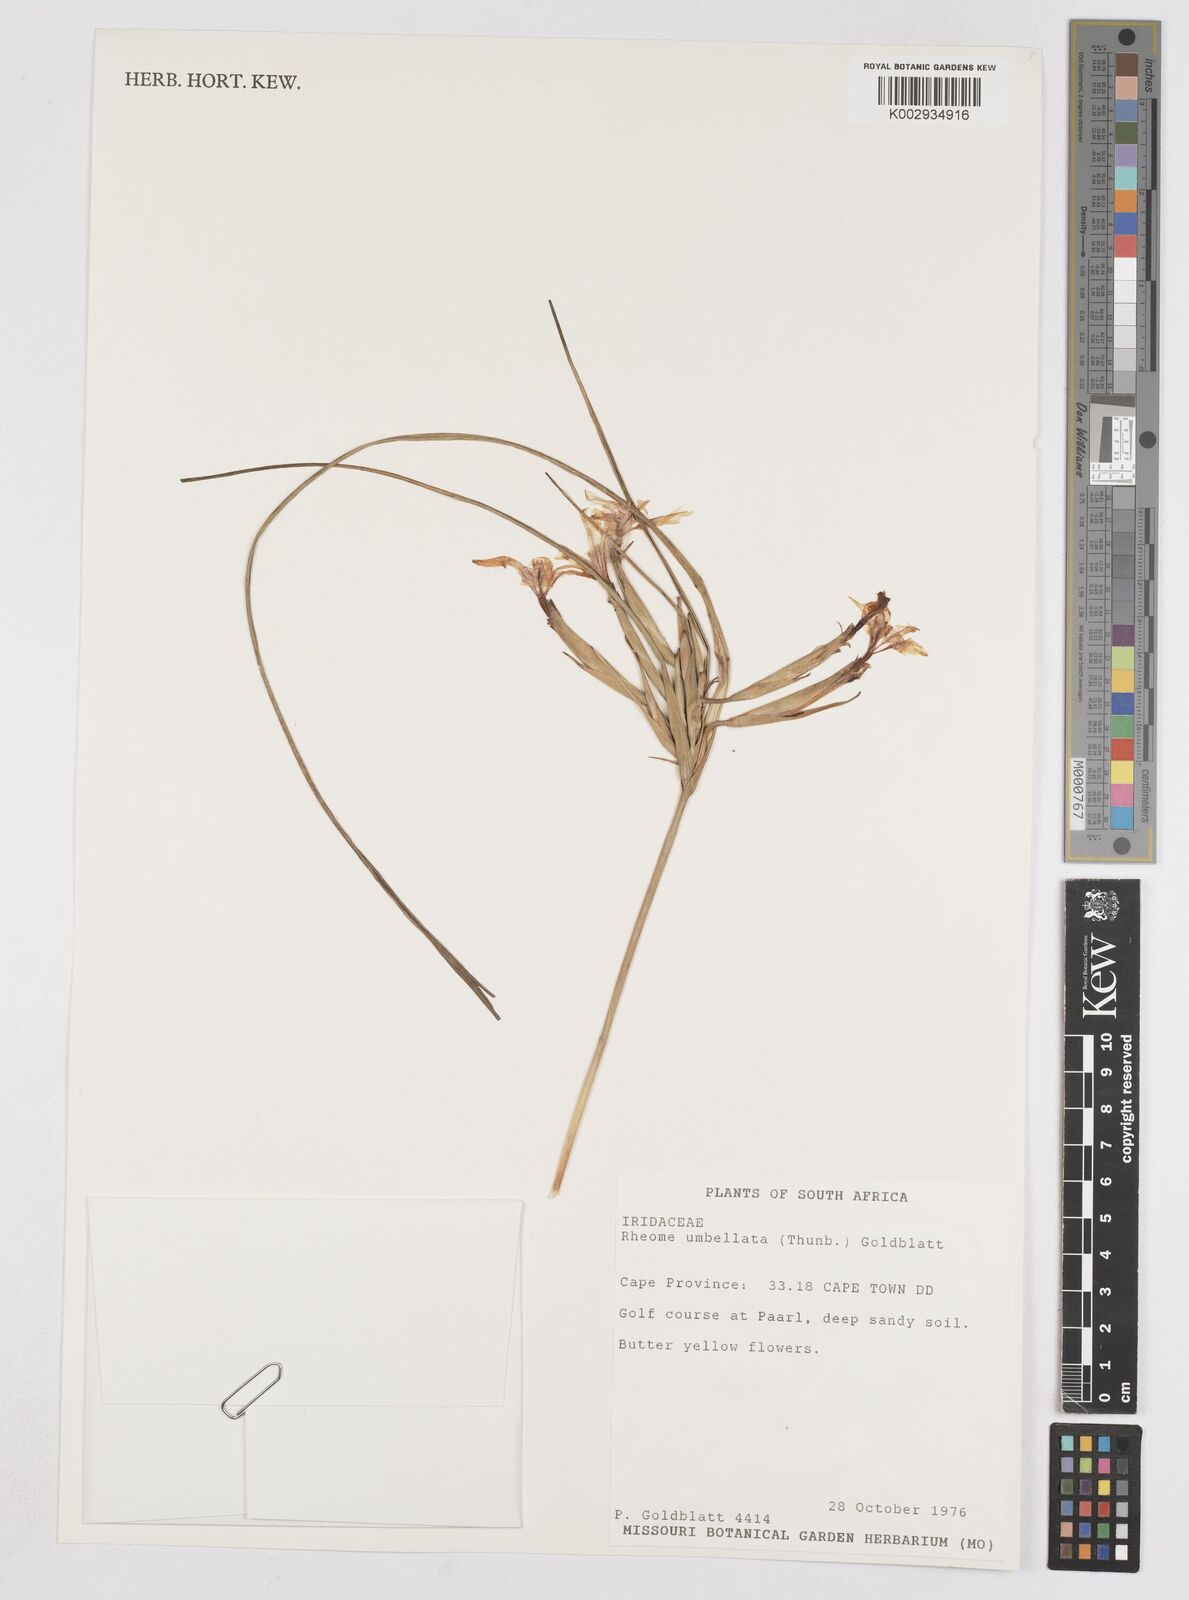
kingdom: Plantae
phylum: Tracheophyta
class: Liliopsida
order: Asparagales
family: Iridaceae
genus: Moraea
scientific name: Moraea umbellata
